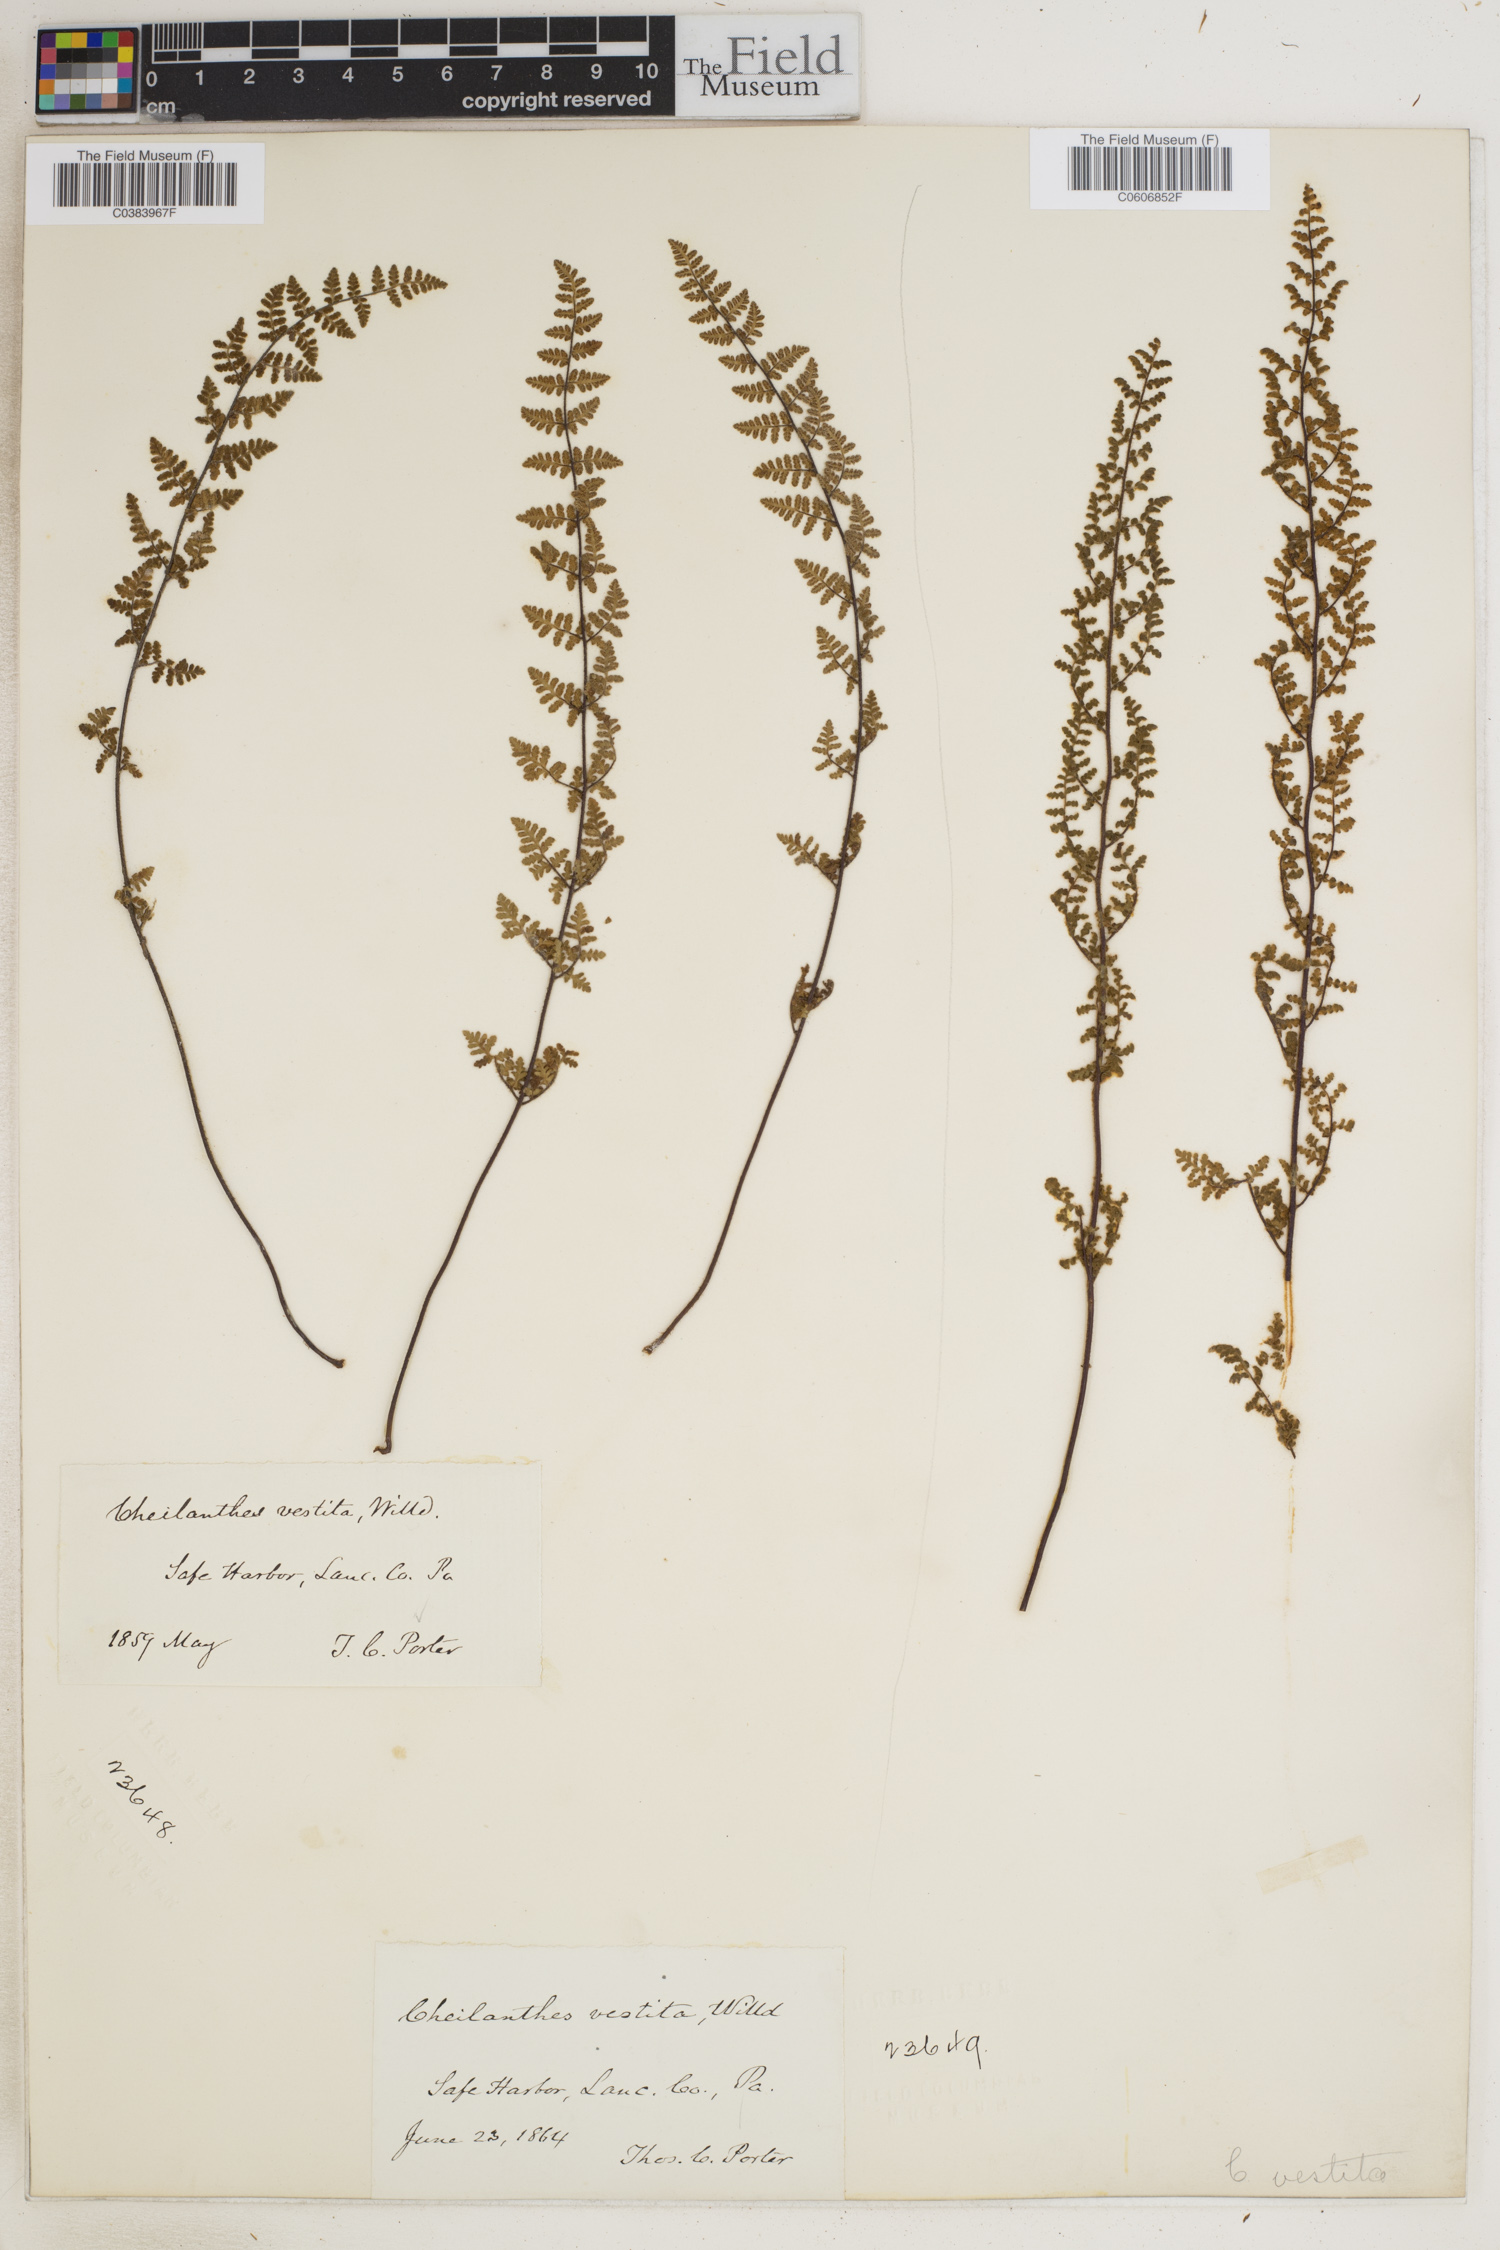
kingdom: Plantae
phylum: Tracheophyta
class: Polypodiopsida
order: Polypodiales
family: Pteridaceae
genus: Myriopteris
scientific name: Myriopteris lanosa
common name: Hairy lip fern
